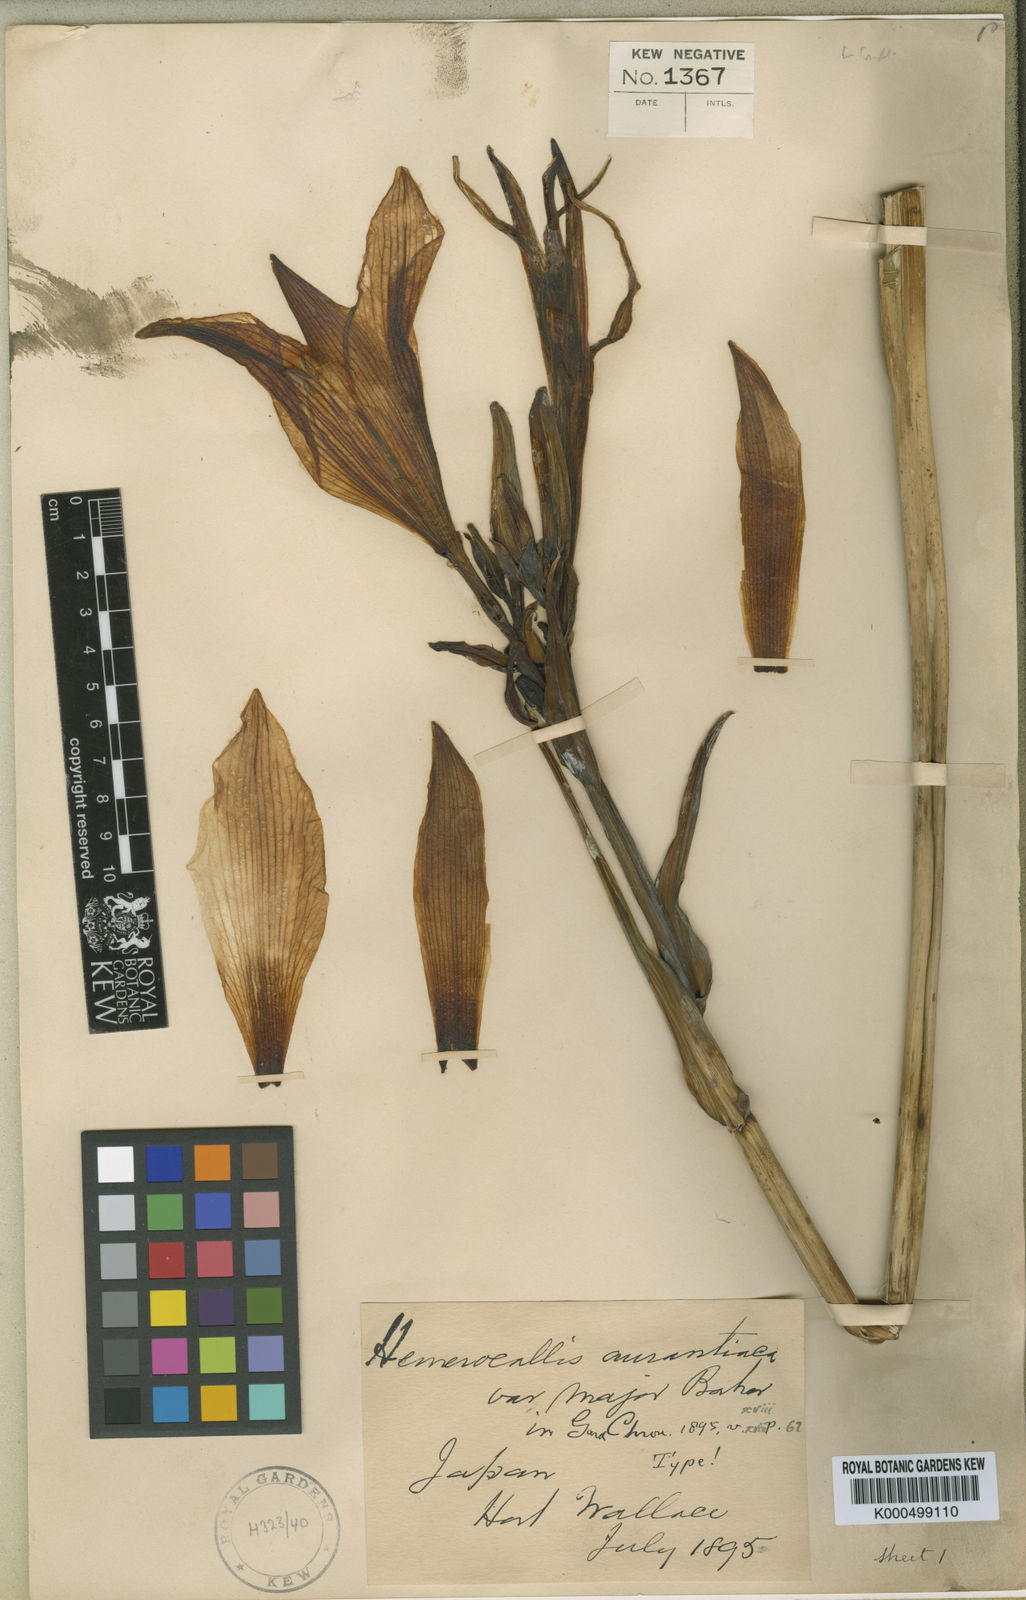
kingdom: Plantae
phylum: Tracheophyta
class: Liliopsida
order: Asparagales
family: Asphodelaceae
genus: Hemerocallis
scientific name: Hemerocallis fulva
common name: Orange day-lily
